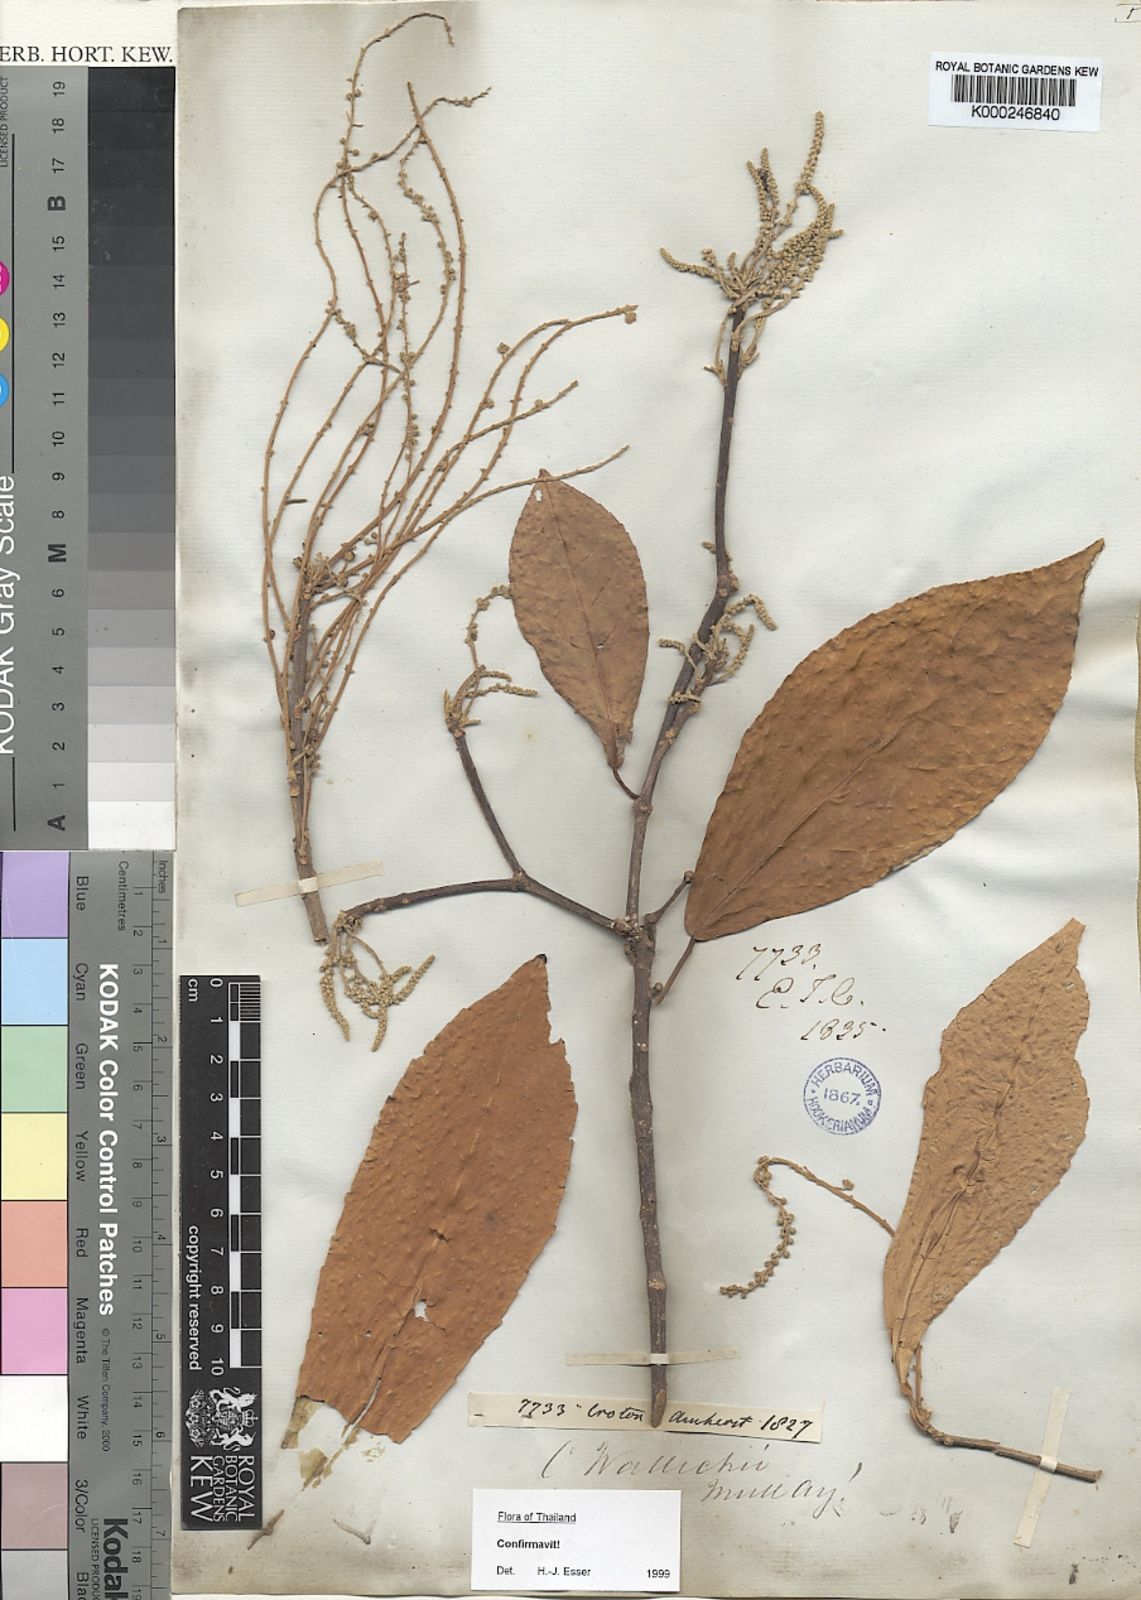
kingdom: Plantae
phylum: Tracheophyta
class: Magnoliopsida
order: Malpighiales
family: Euphorbiaceae
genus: Croton
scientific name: Croton
